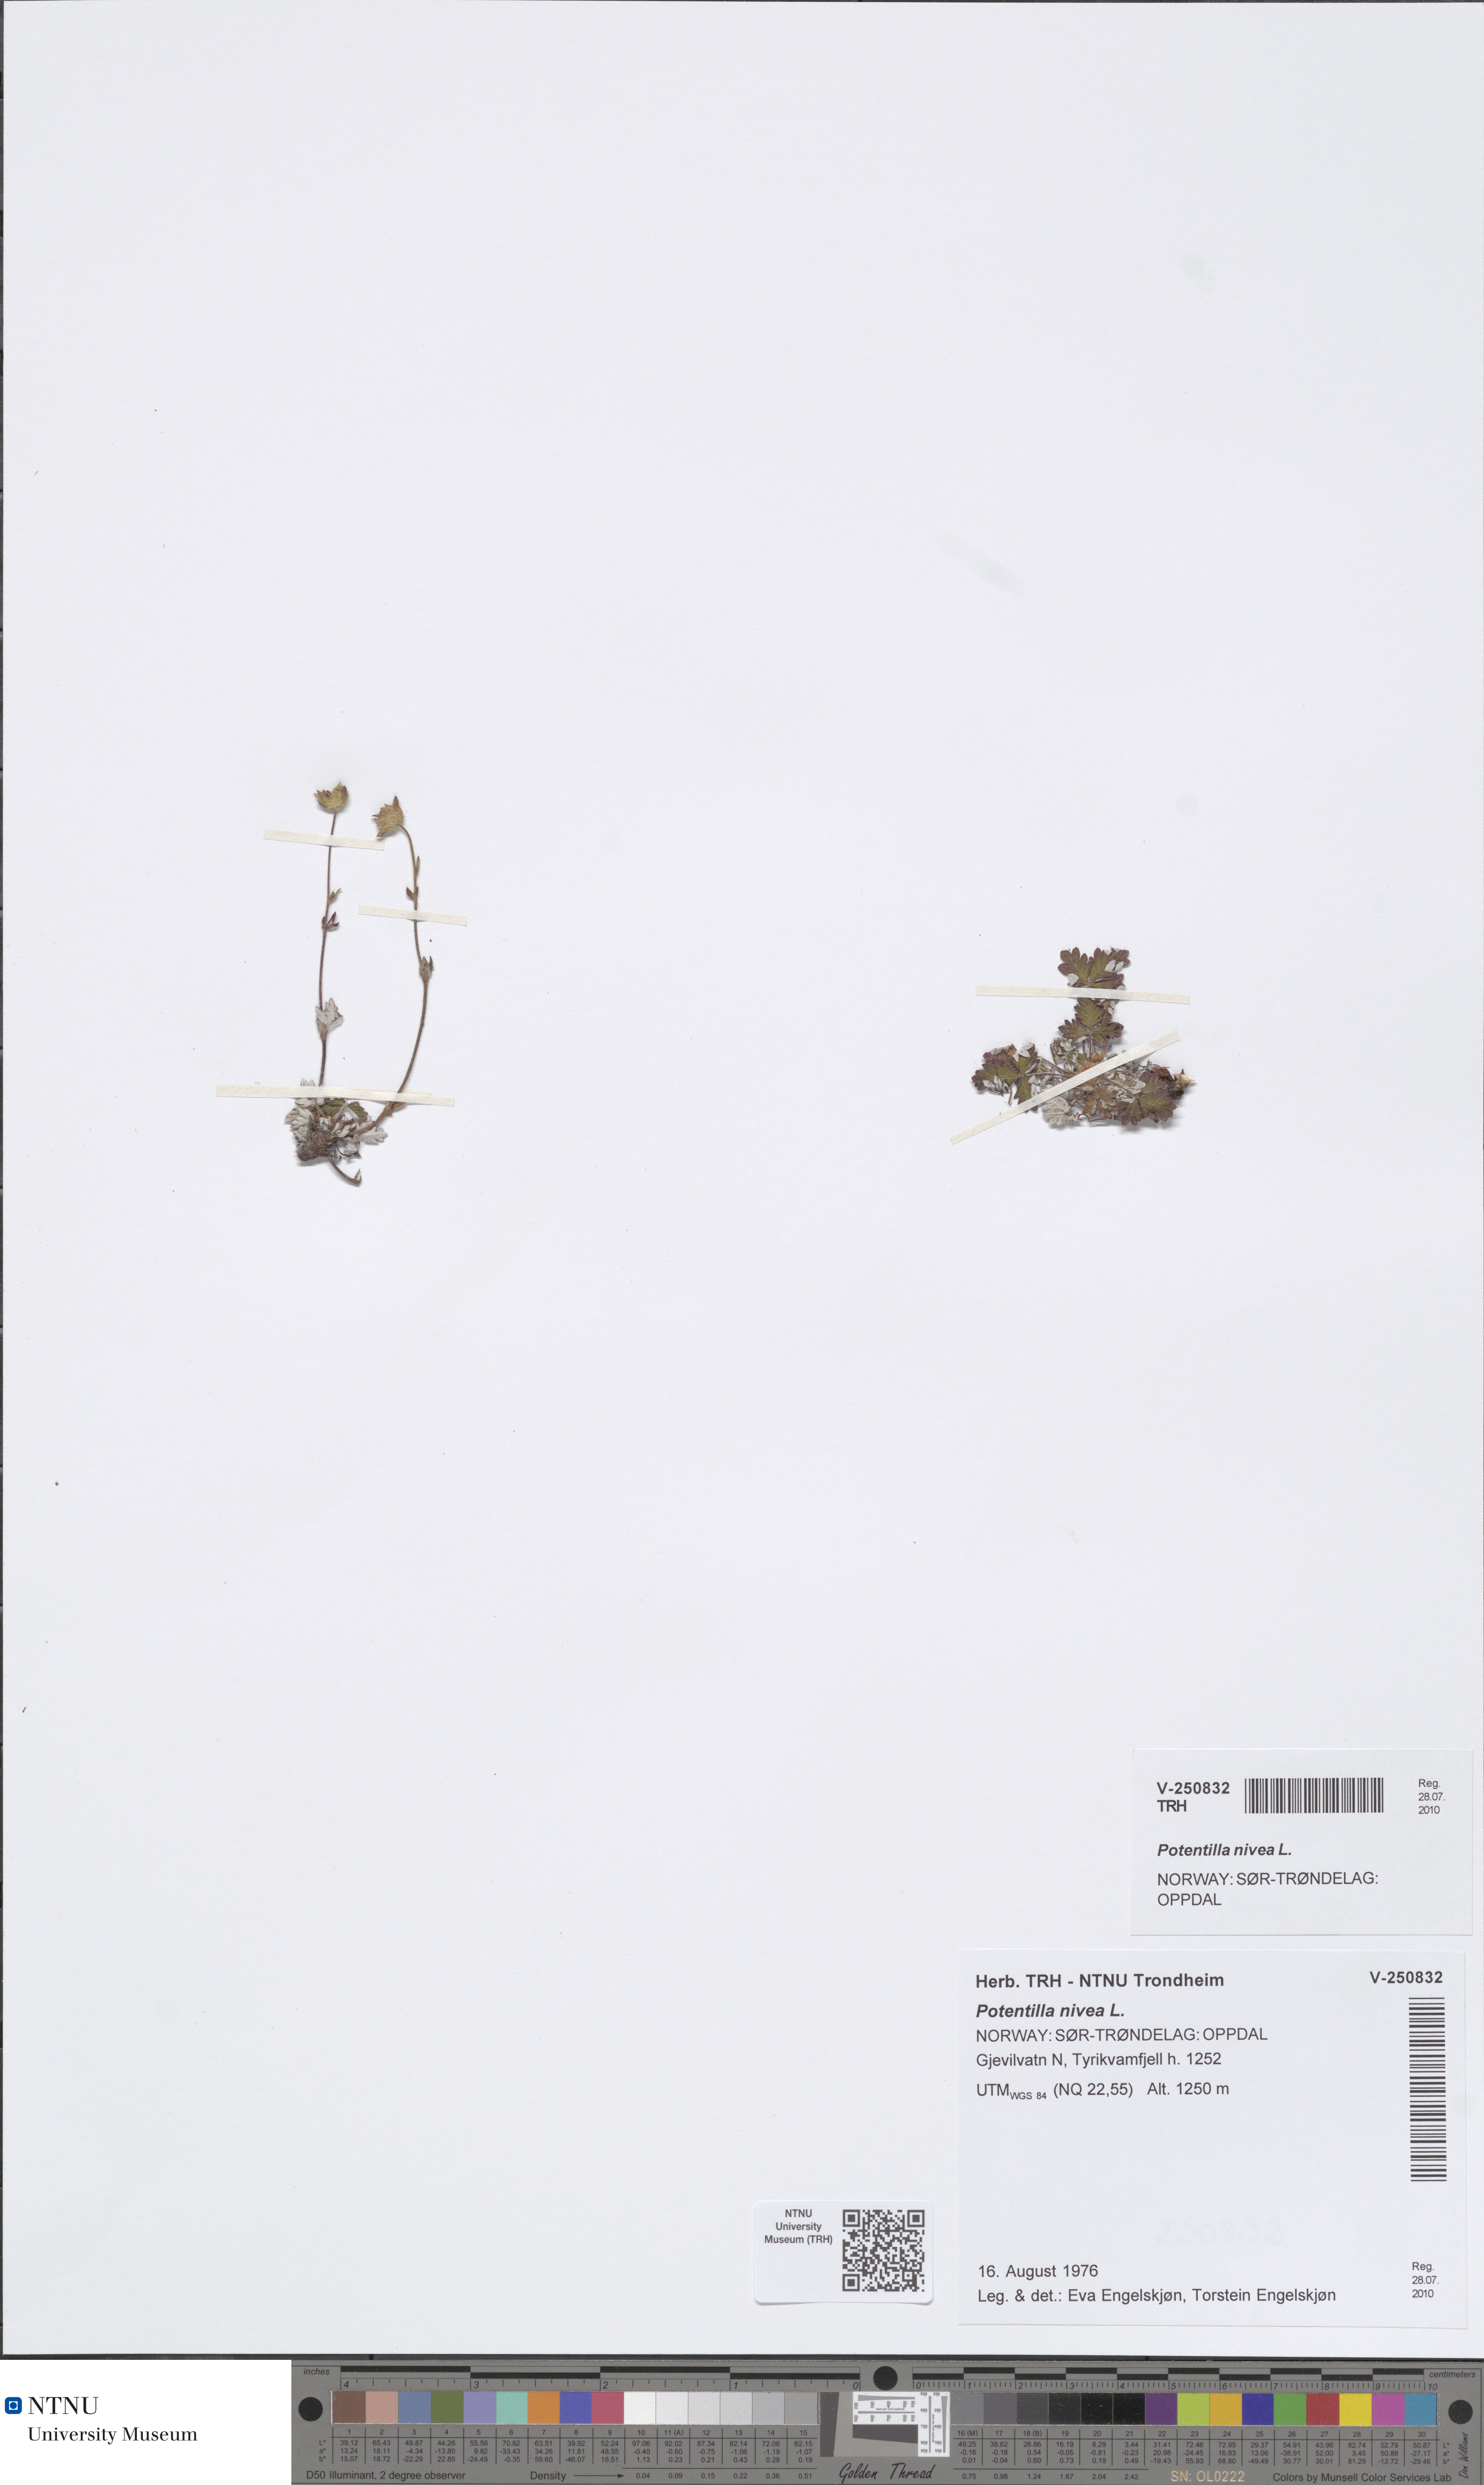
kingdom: Plantae
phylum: Tracheophyta
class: Magnoliopsida
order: Rosales
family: Rosaceae
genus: Potentilla
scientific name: Potentilla nivea
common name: Snow cinquefoil
